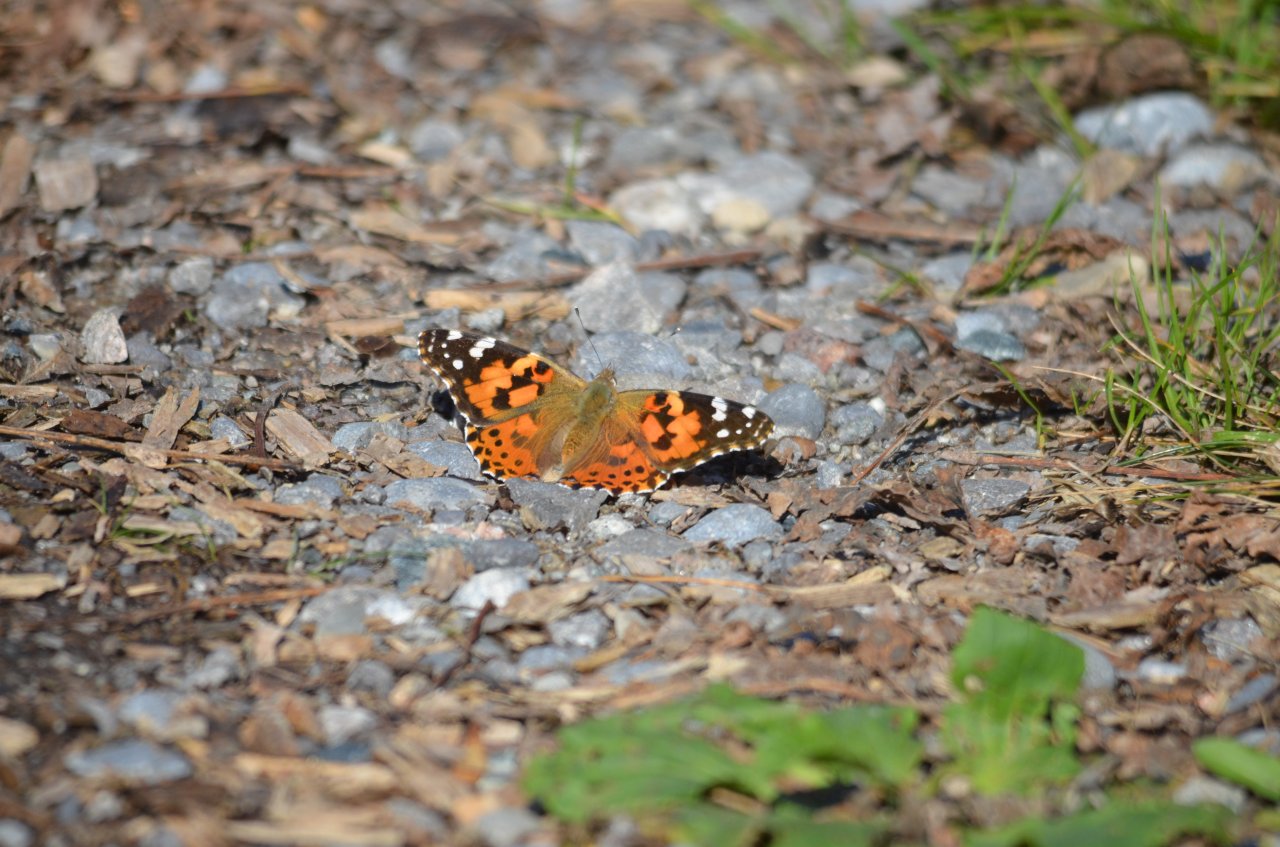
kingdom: Animalia
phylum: Arthropoda
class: Insecta
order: Lepidoptera
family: Nymphalidae
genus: Vanessa
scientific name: Vanessa cardui
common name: Painted Lady
